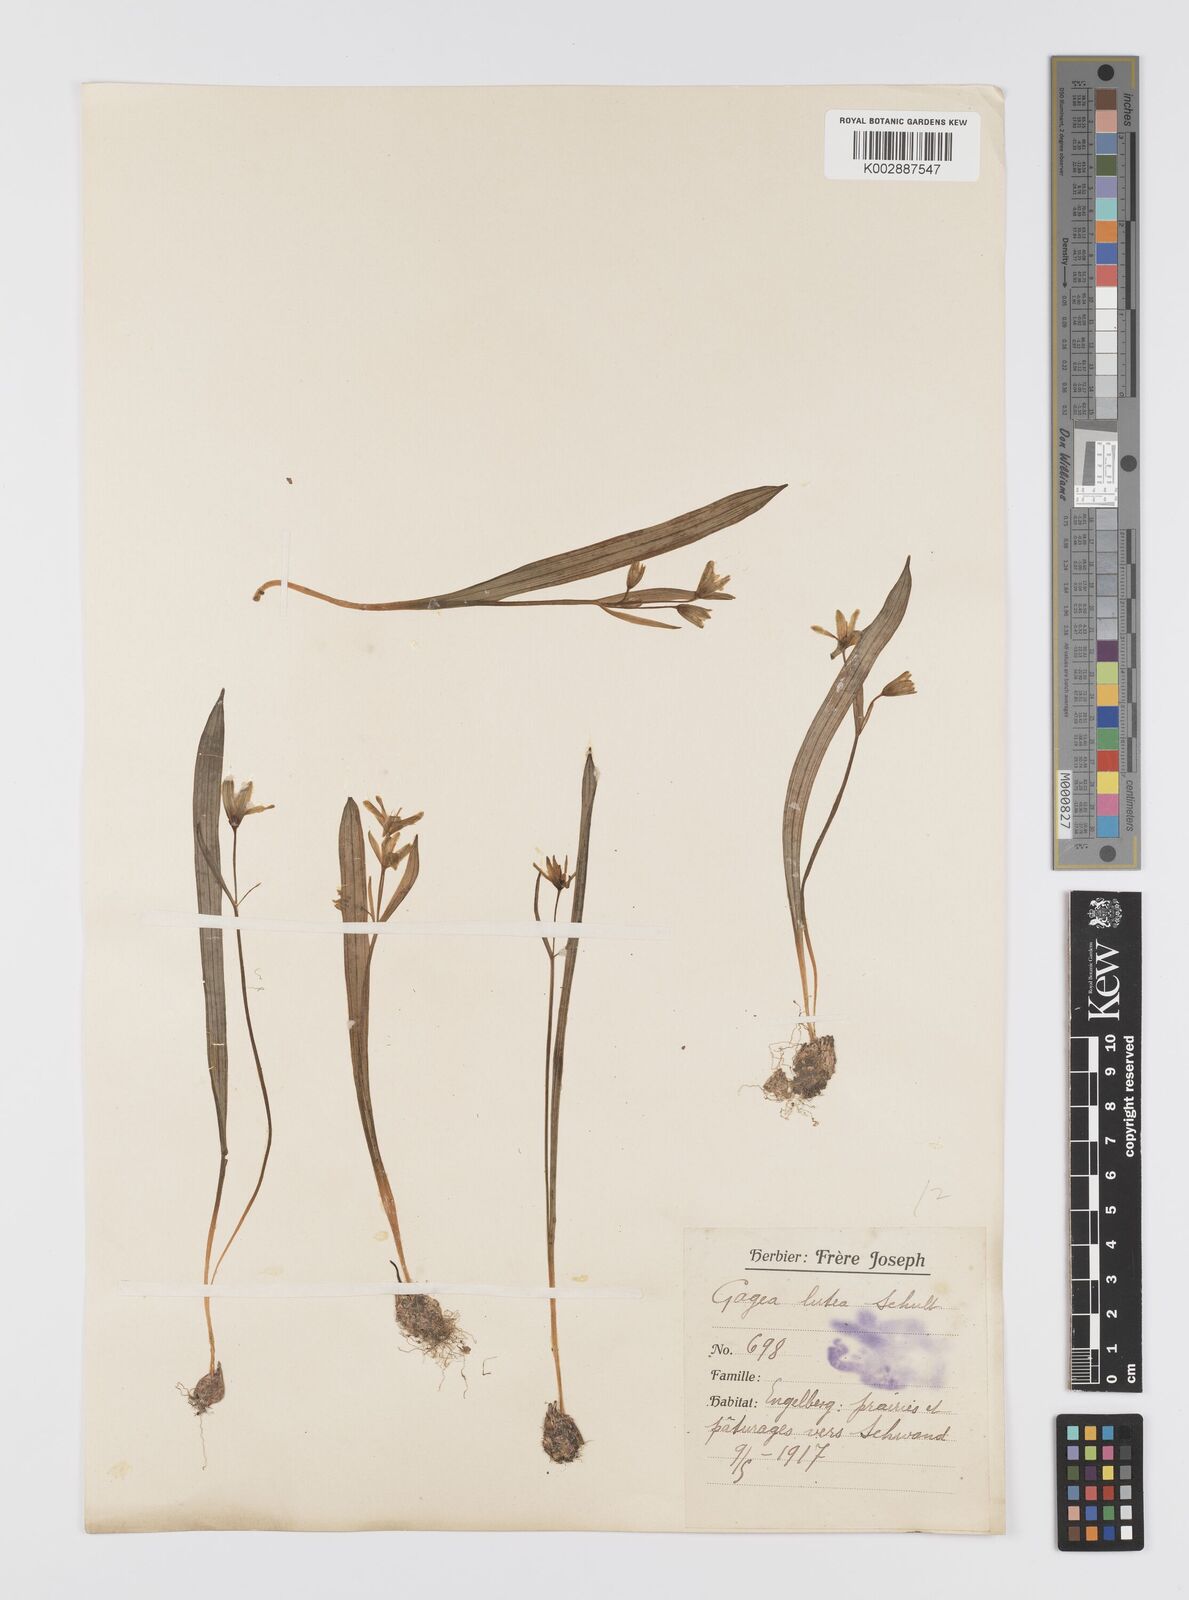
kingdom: Plantae
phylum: Tracheophyta
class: Liliopsida
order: Liliales
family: Liliaceae
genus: Gagea
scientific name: Gagea lutea
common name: Yellow star-of-bethlehem
